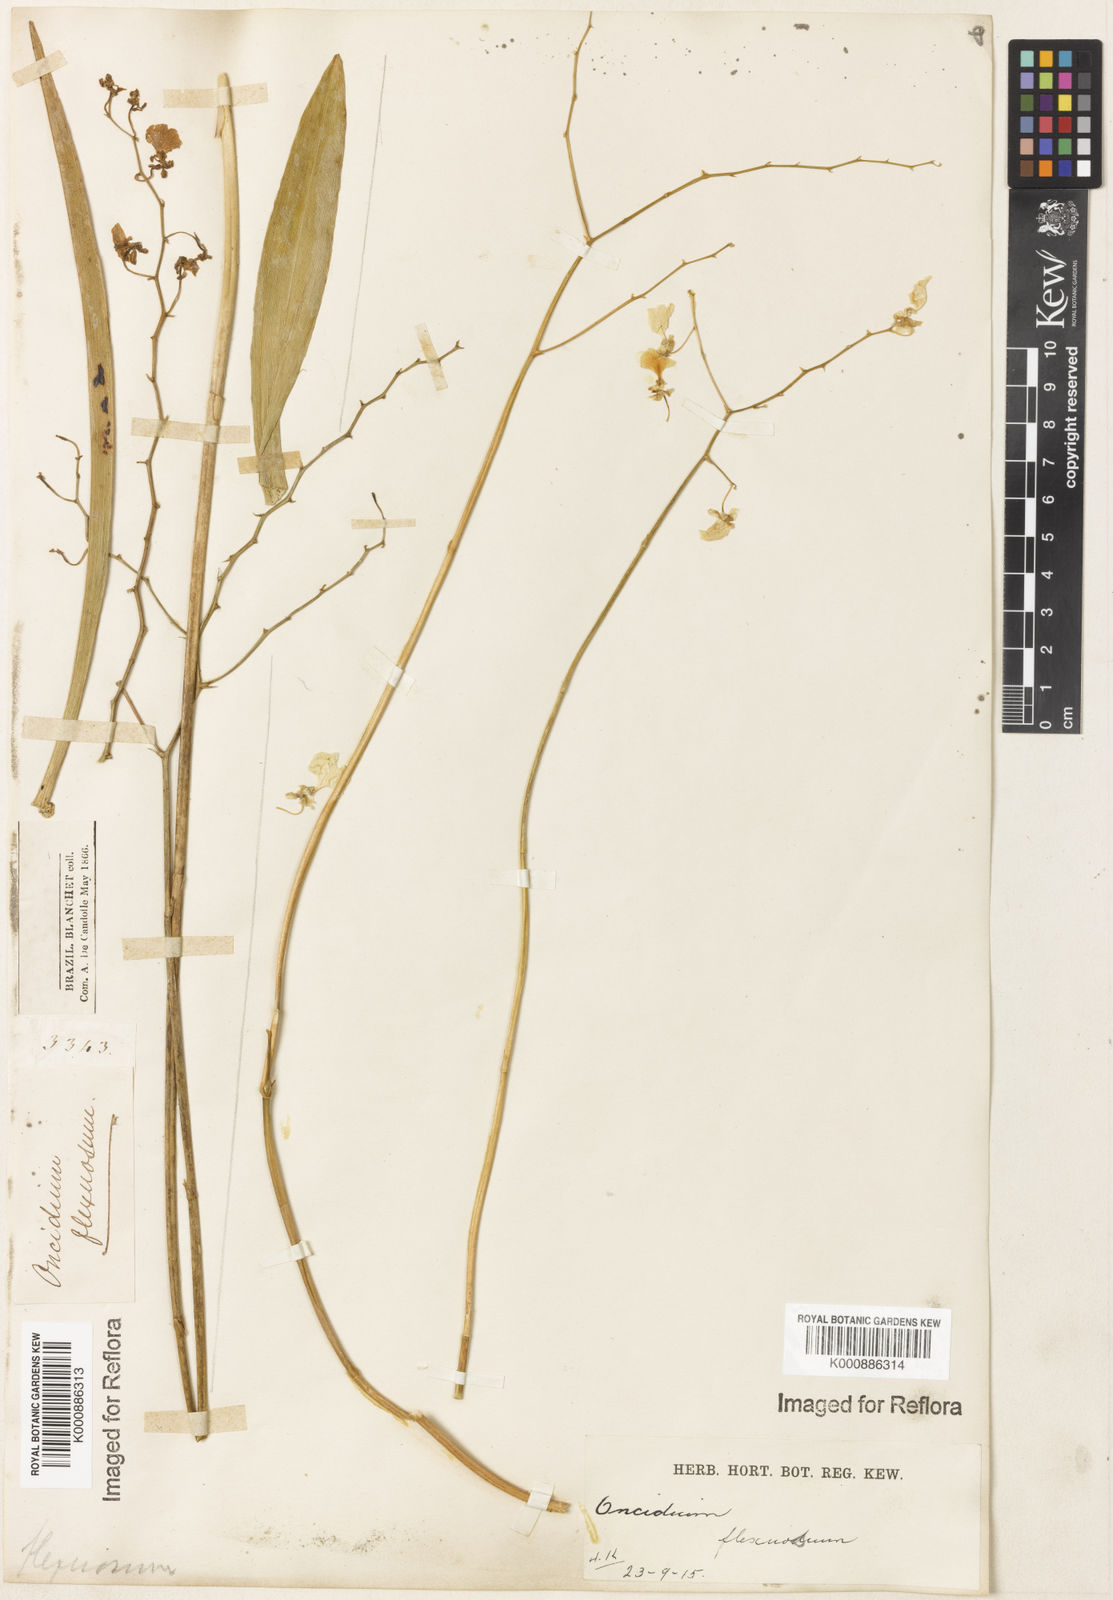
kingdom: Plantae
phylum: Tracheophyta
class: Liliopsida
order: Asparagales
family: Orchidaceae
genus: Gomesa
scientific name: Gomesa flexuosa
